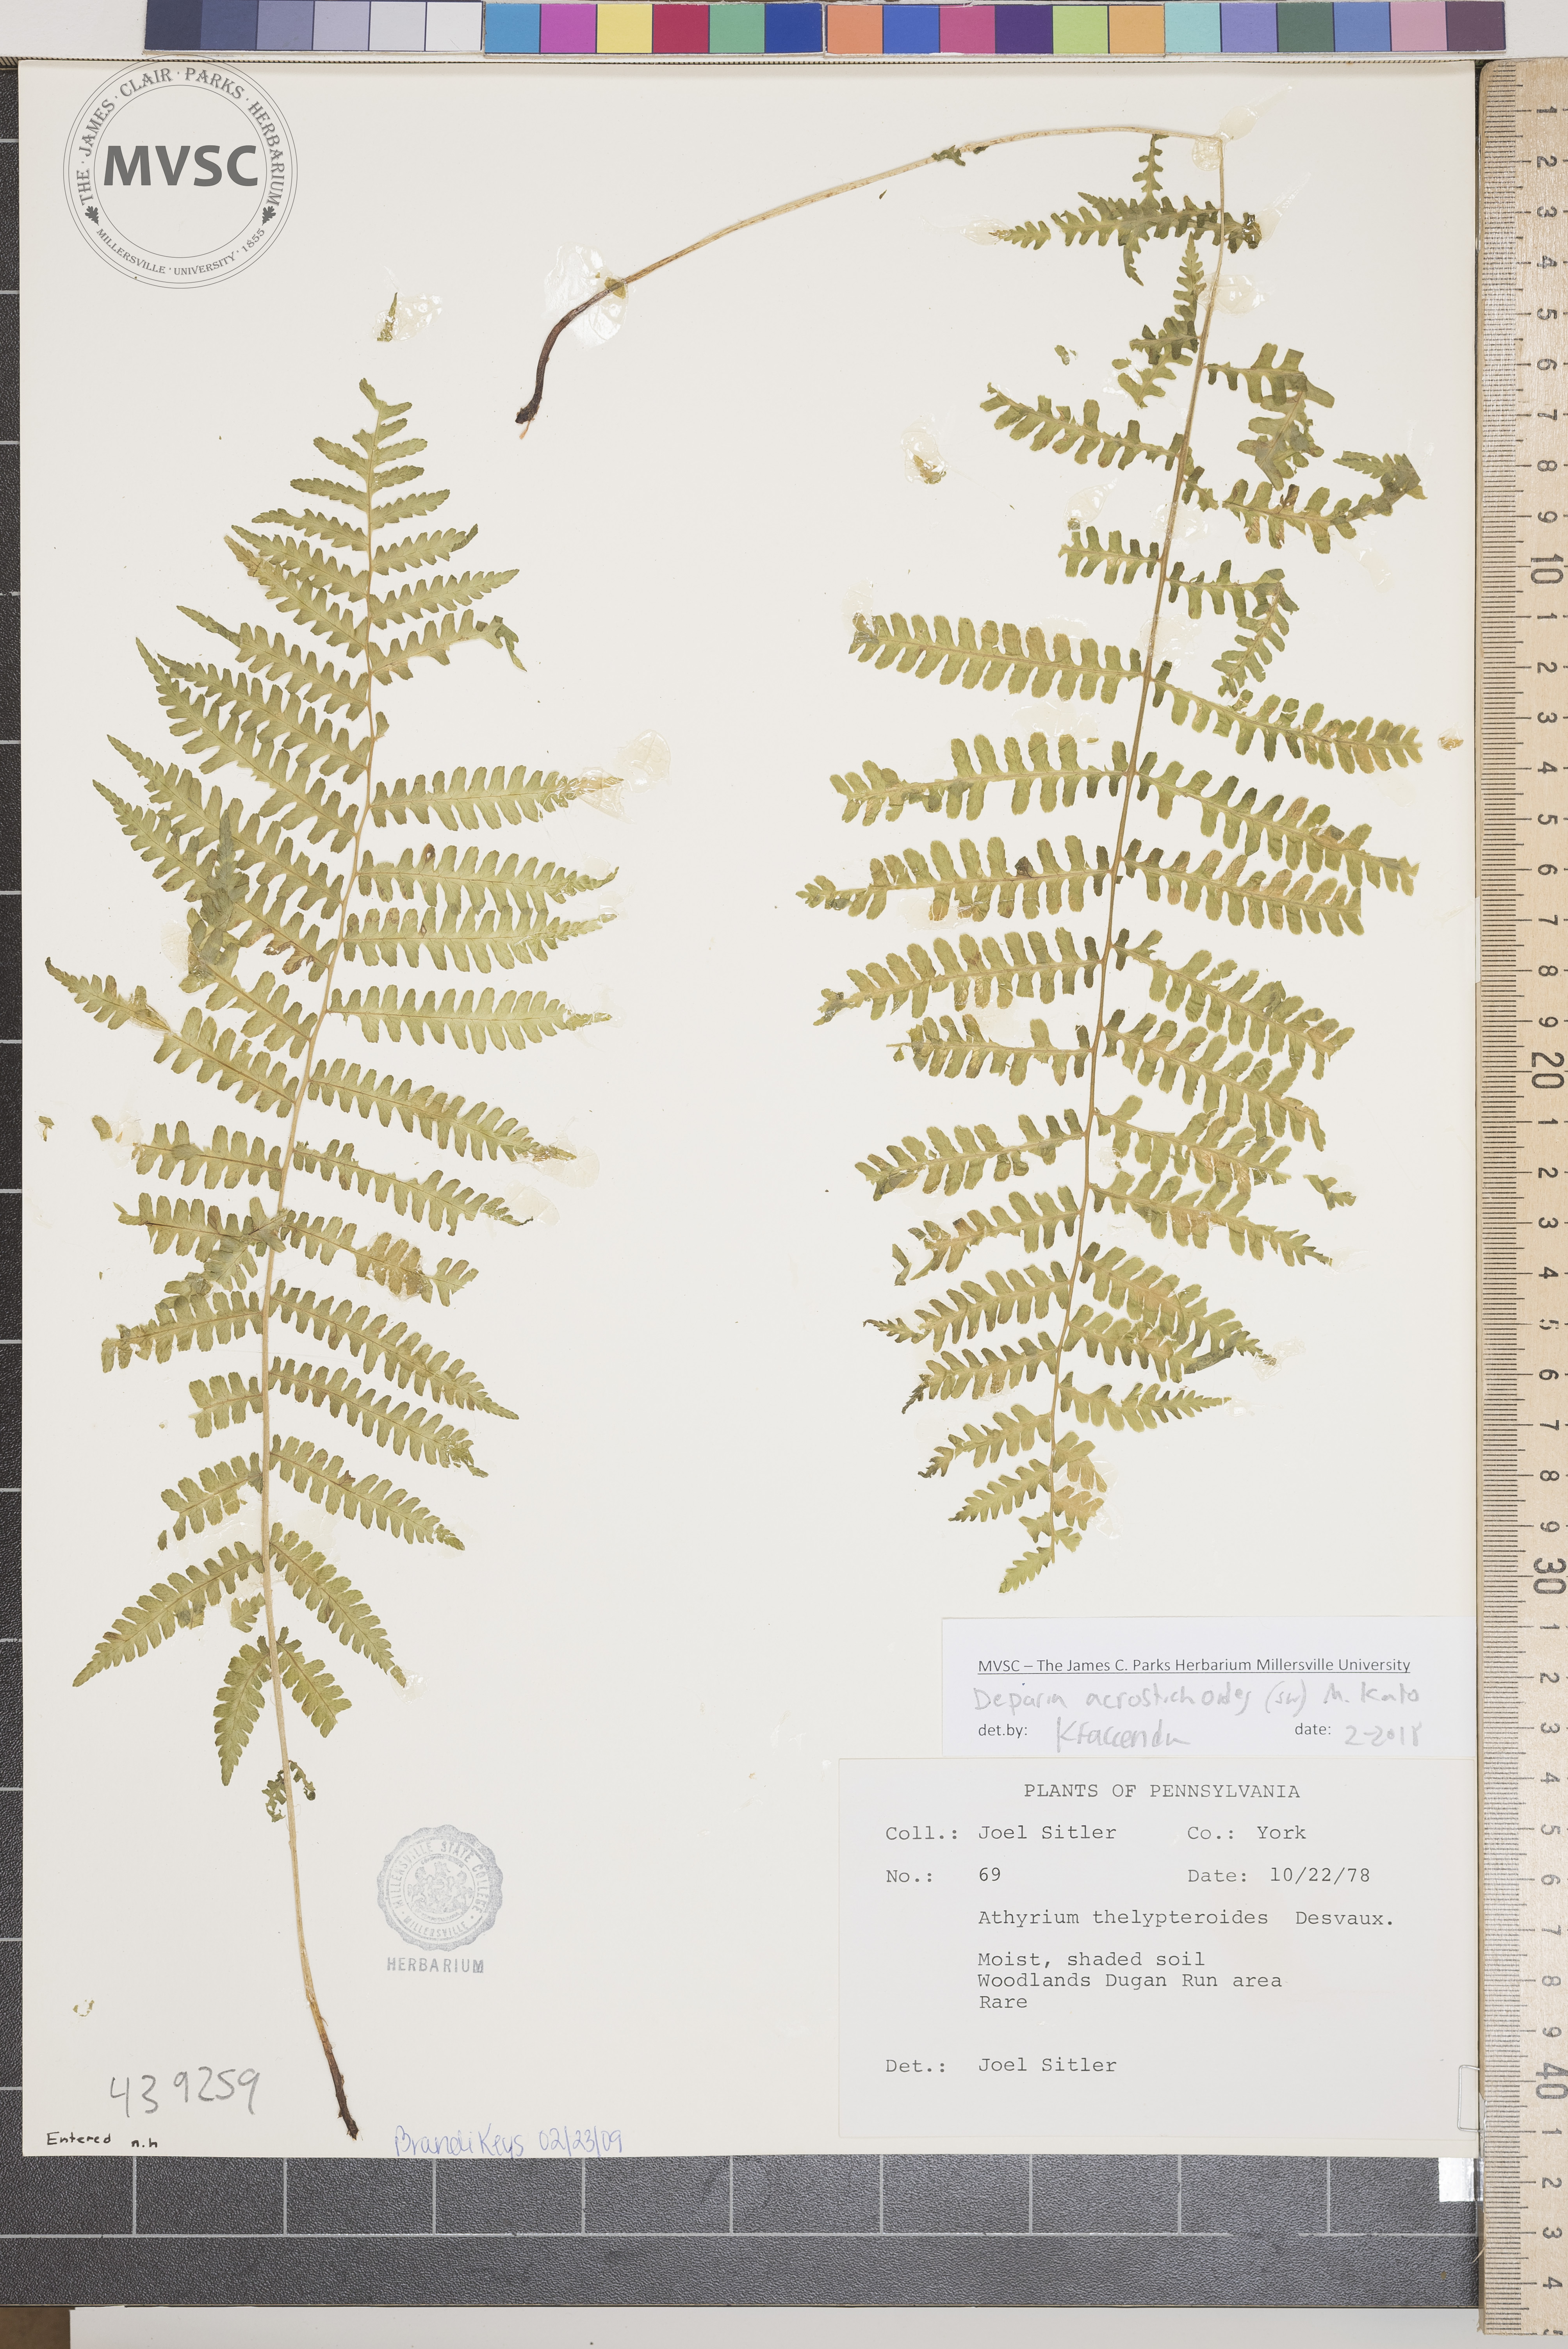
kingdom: Plantae
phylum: Tracheophyta
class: Polypodiopsida
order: Polypodiales
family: Athyriaceae
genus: Deparia
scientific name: Deparia acrostichoides
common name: Silvery glade fern
